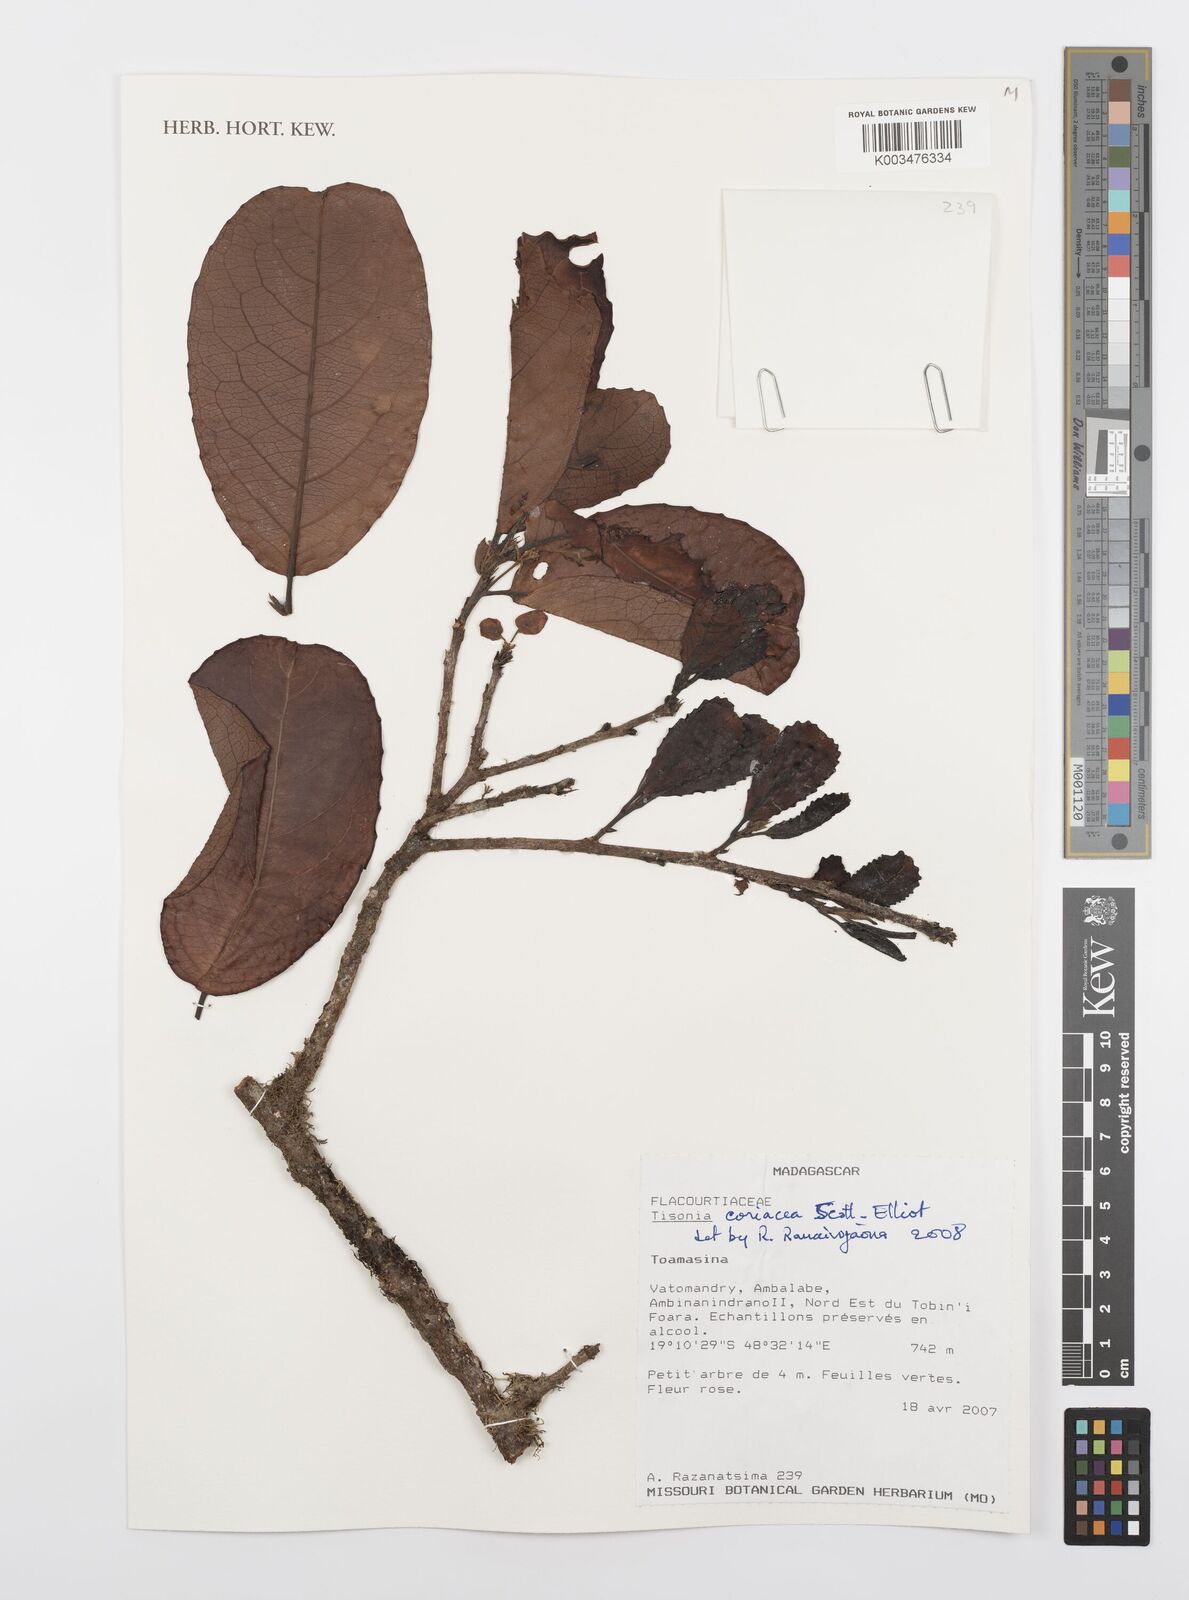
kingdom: Plantae
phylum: Tracheophyta
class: Magnoliopsida
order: Malpighiales
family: Salicaceae
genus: Tisonia
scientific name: Tisonia coriacea
